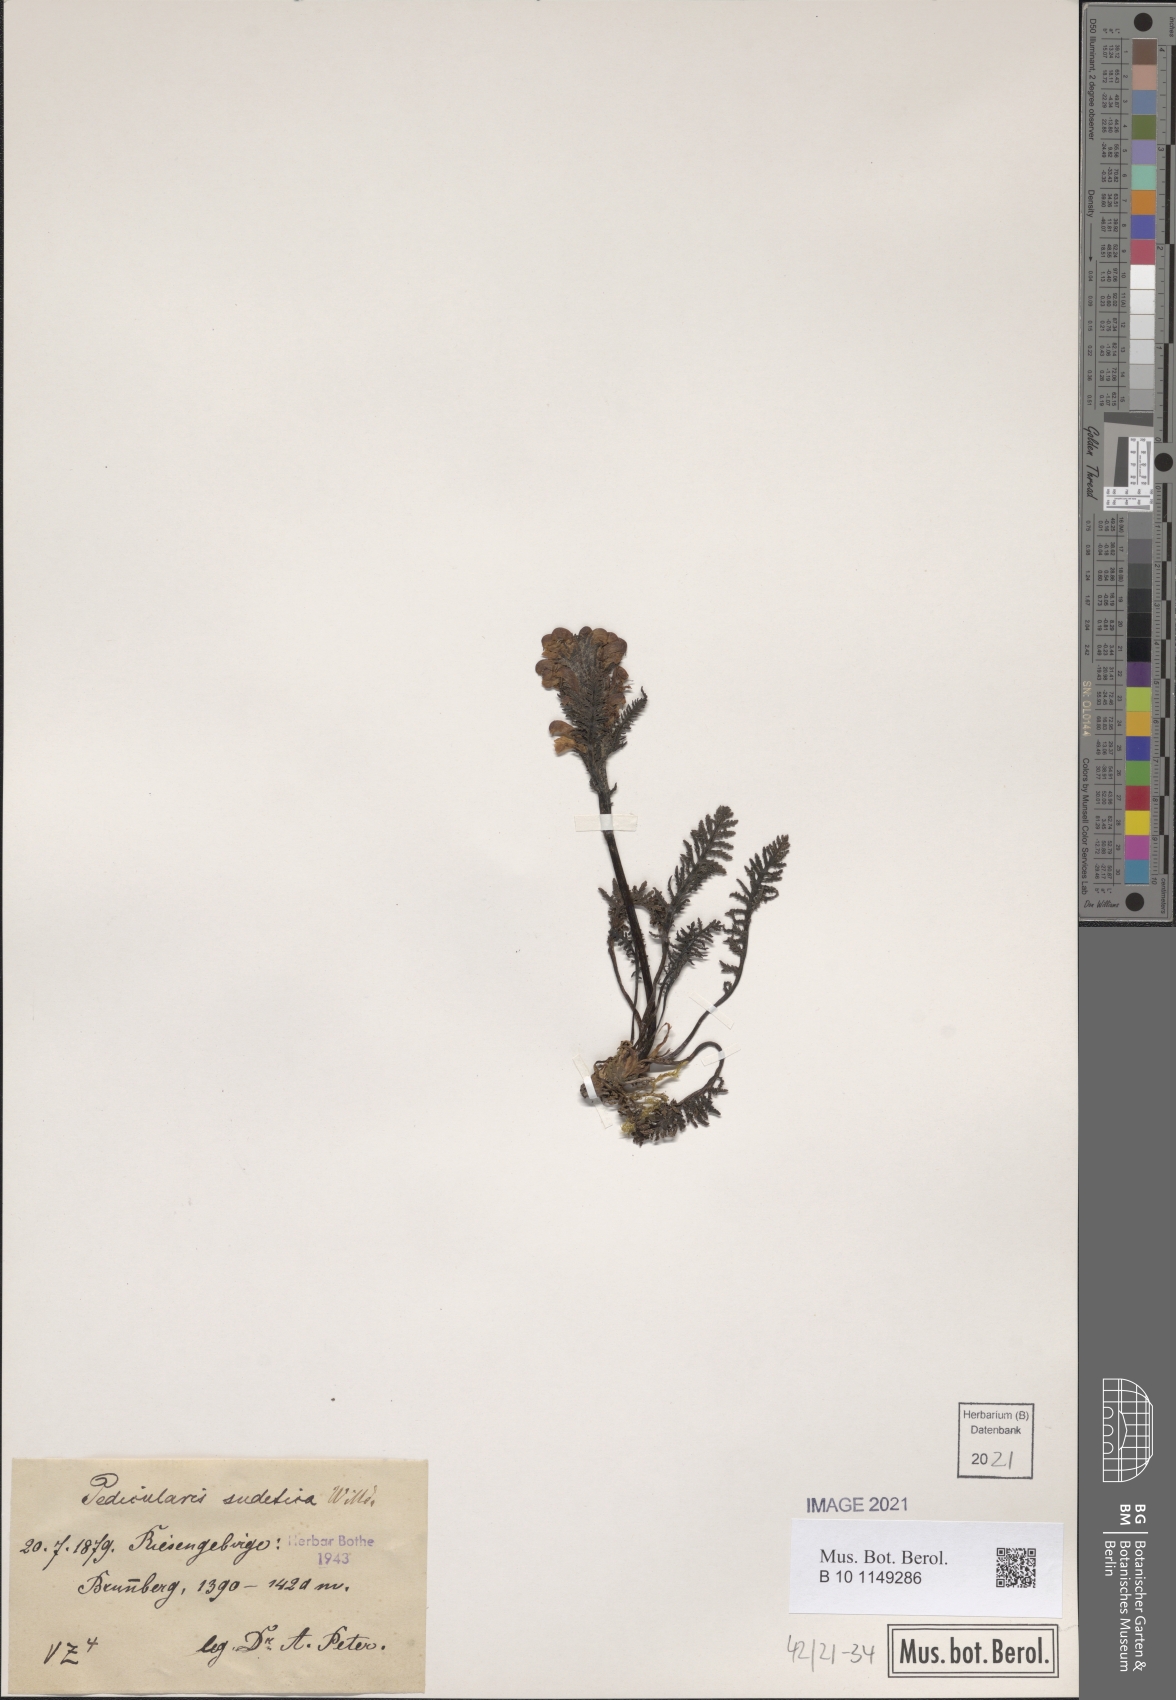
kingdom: Plantae
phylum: Tracheophyta
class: Magnoliopsida
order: Lamiales
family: Orobanchaceae
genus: Pedicularis
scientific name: Pedicularis sudetica
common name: Sudeten lousewort
